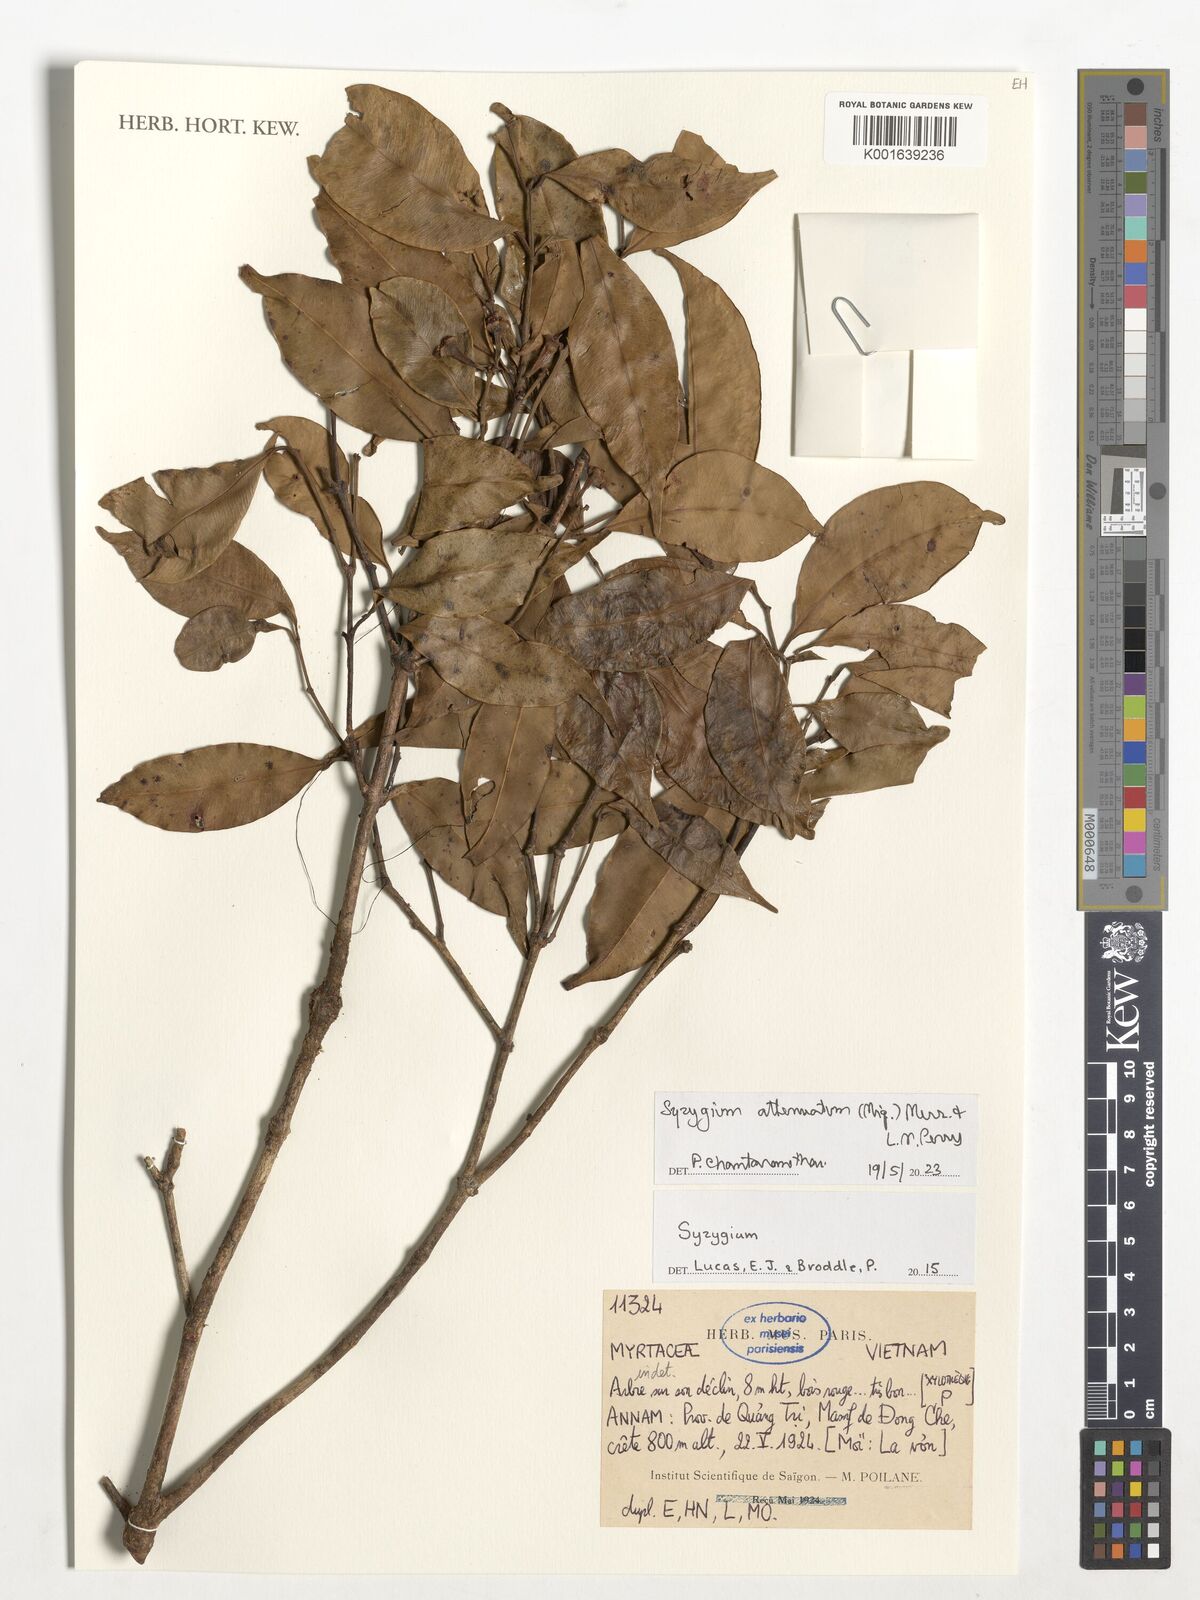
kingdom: Plantae
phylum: Tracheophyta
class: Magnoliopsida
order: Myrtales
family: Myrtaceae
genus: Syzygium
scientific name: Syzygium attenuatum
